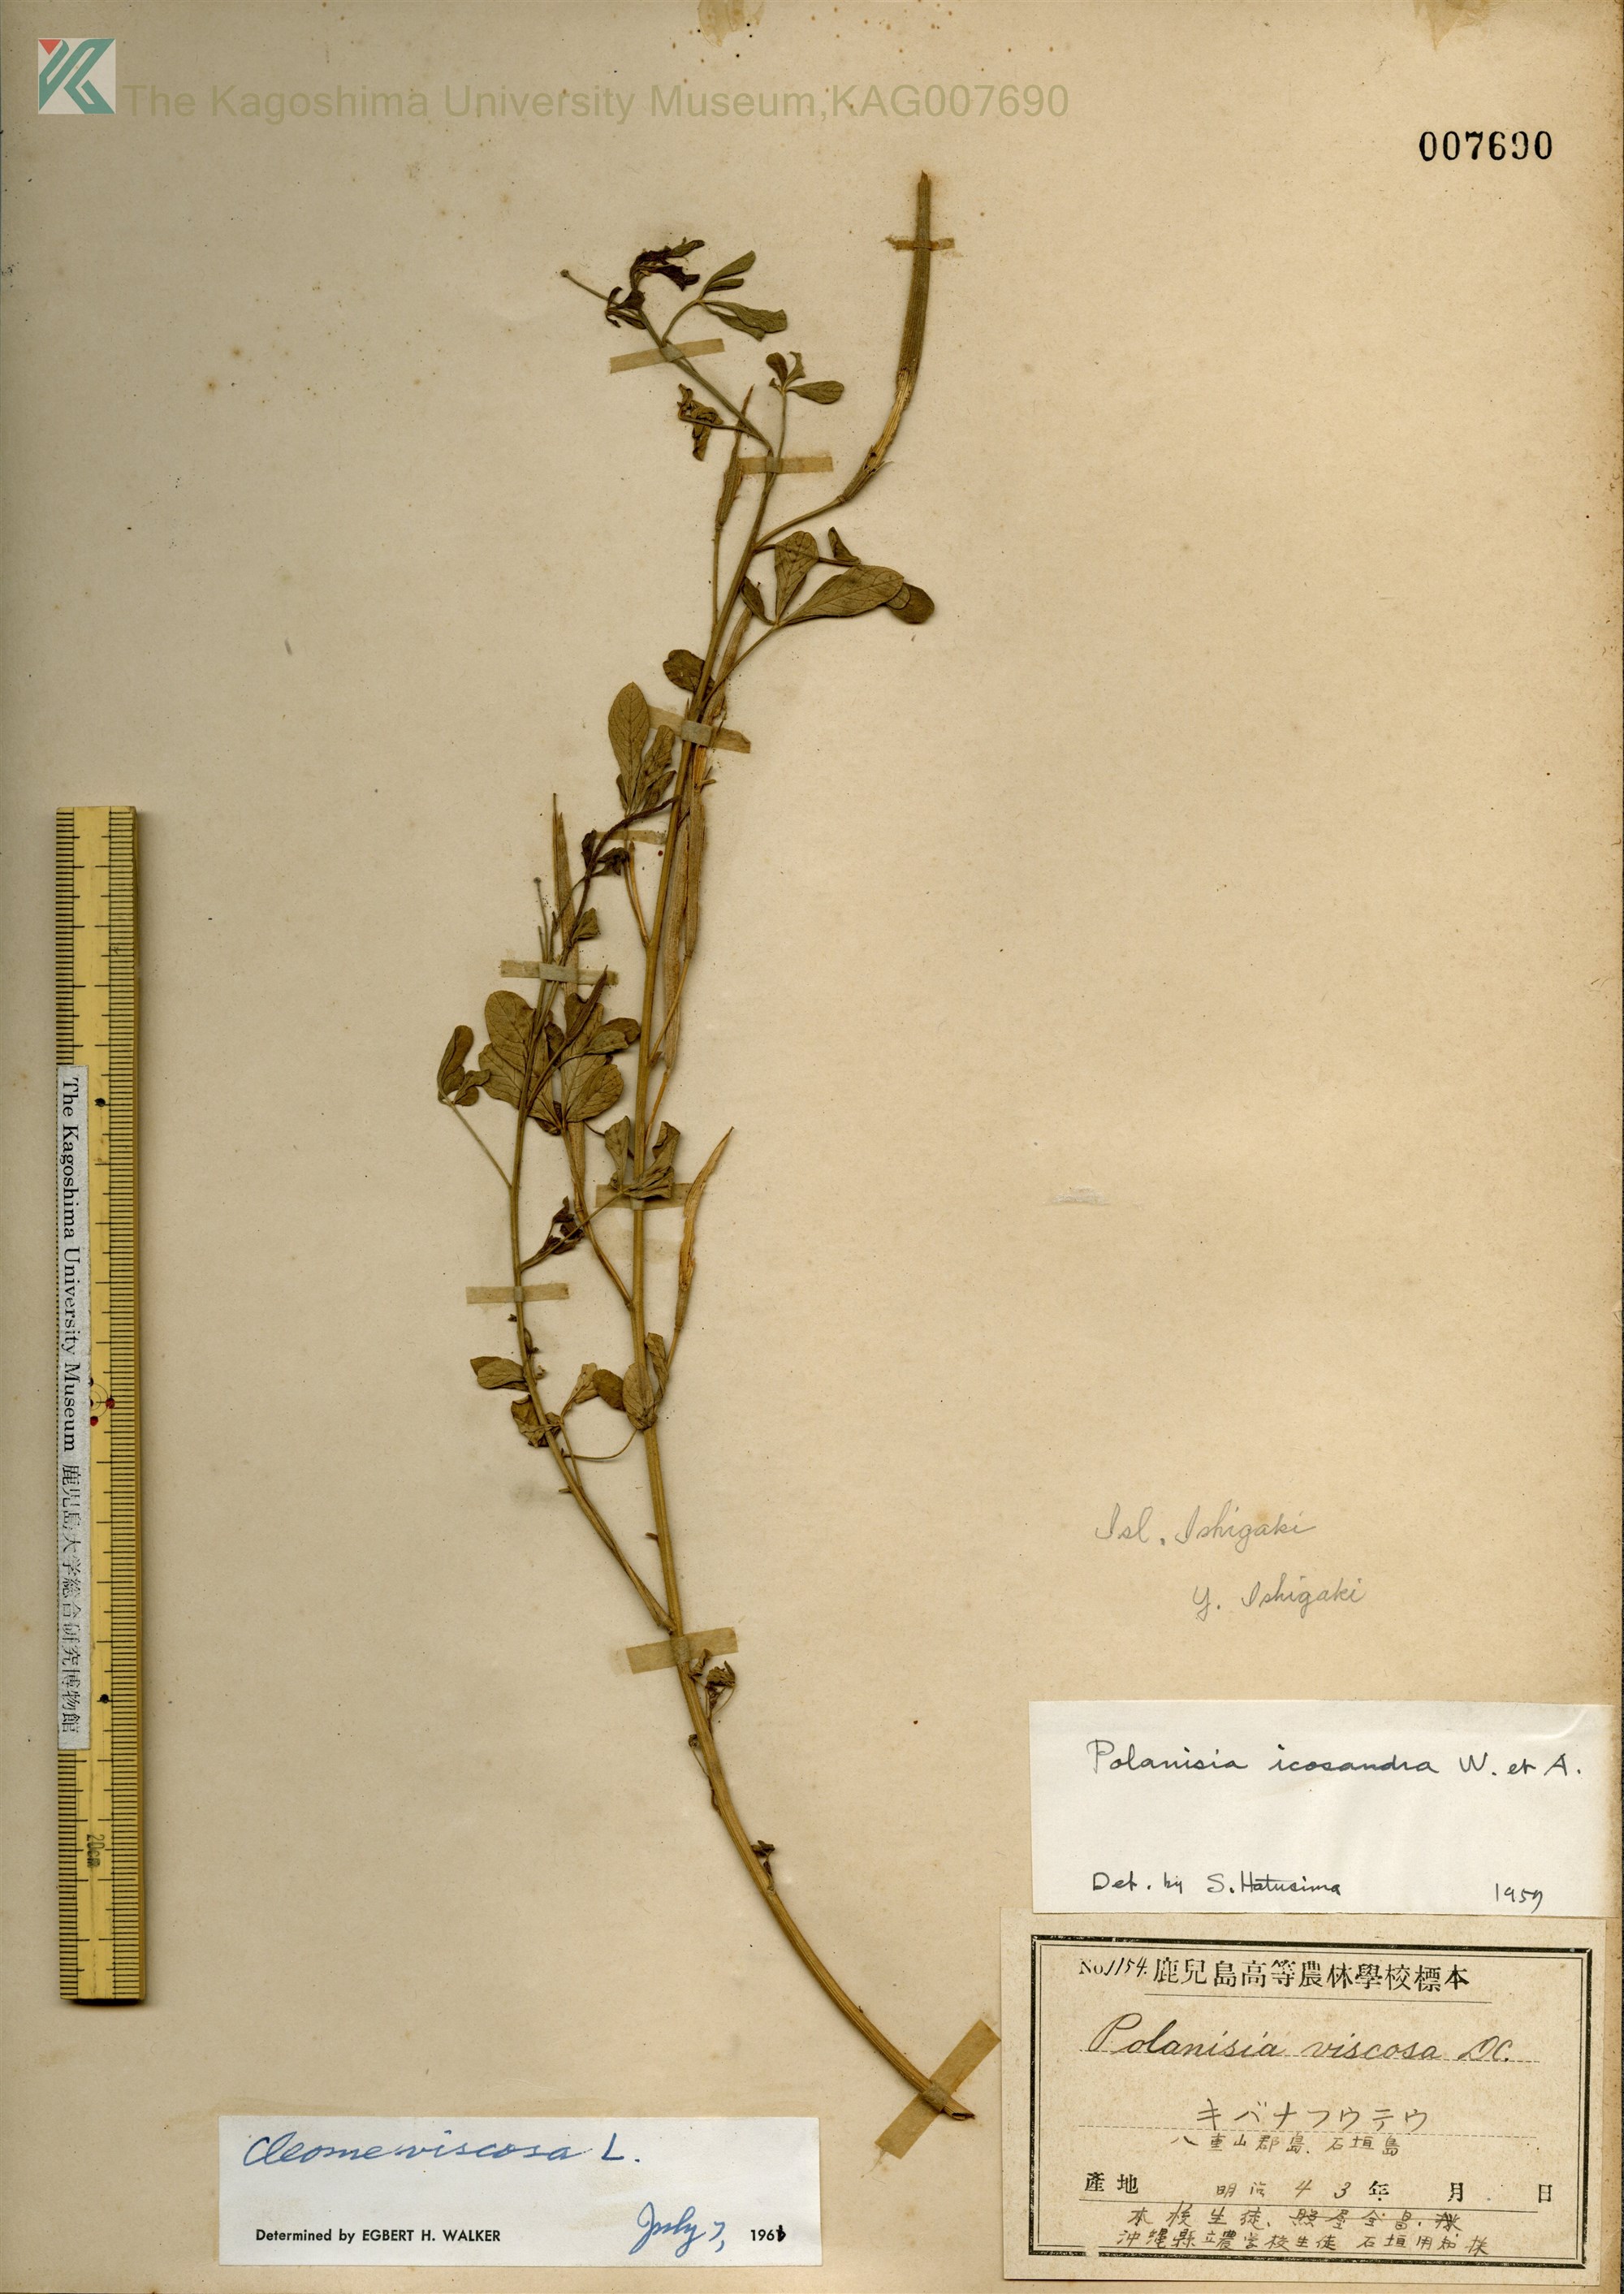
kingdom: Plantae
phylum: Tracheophyta
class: Magnoliopsida
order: Brassicales
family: Cleomaceae
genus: Arivela
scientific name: Arivela viscosa
